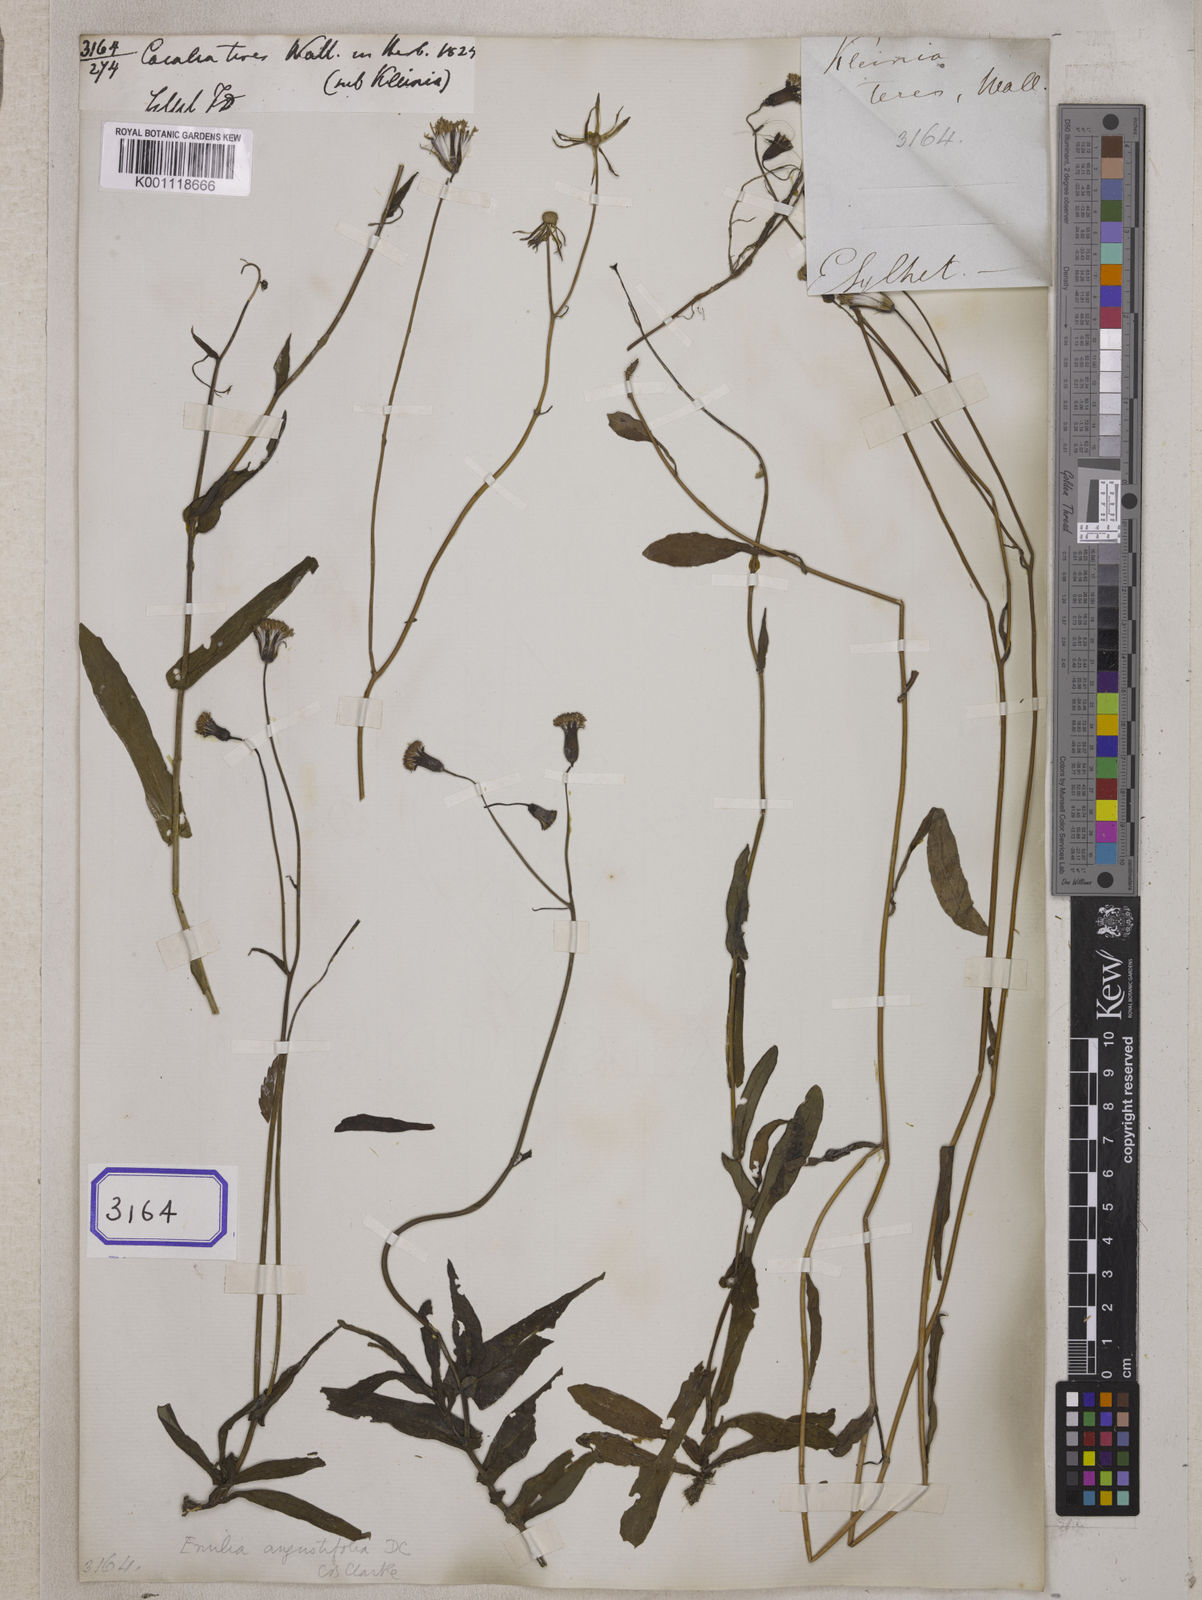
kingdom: Plantae
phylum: Tracheophyta
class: Magnoliopsida
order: Asterales
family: Asteraceae
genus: Emilia
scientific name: Emilia prenanthoidea
